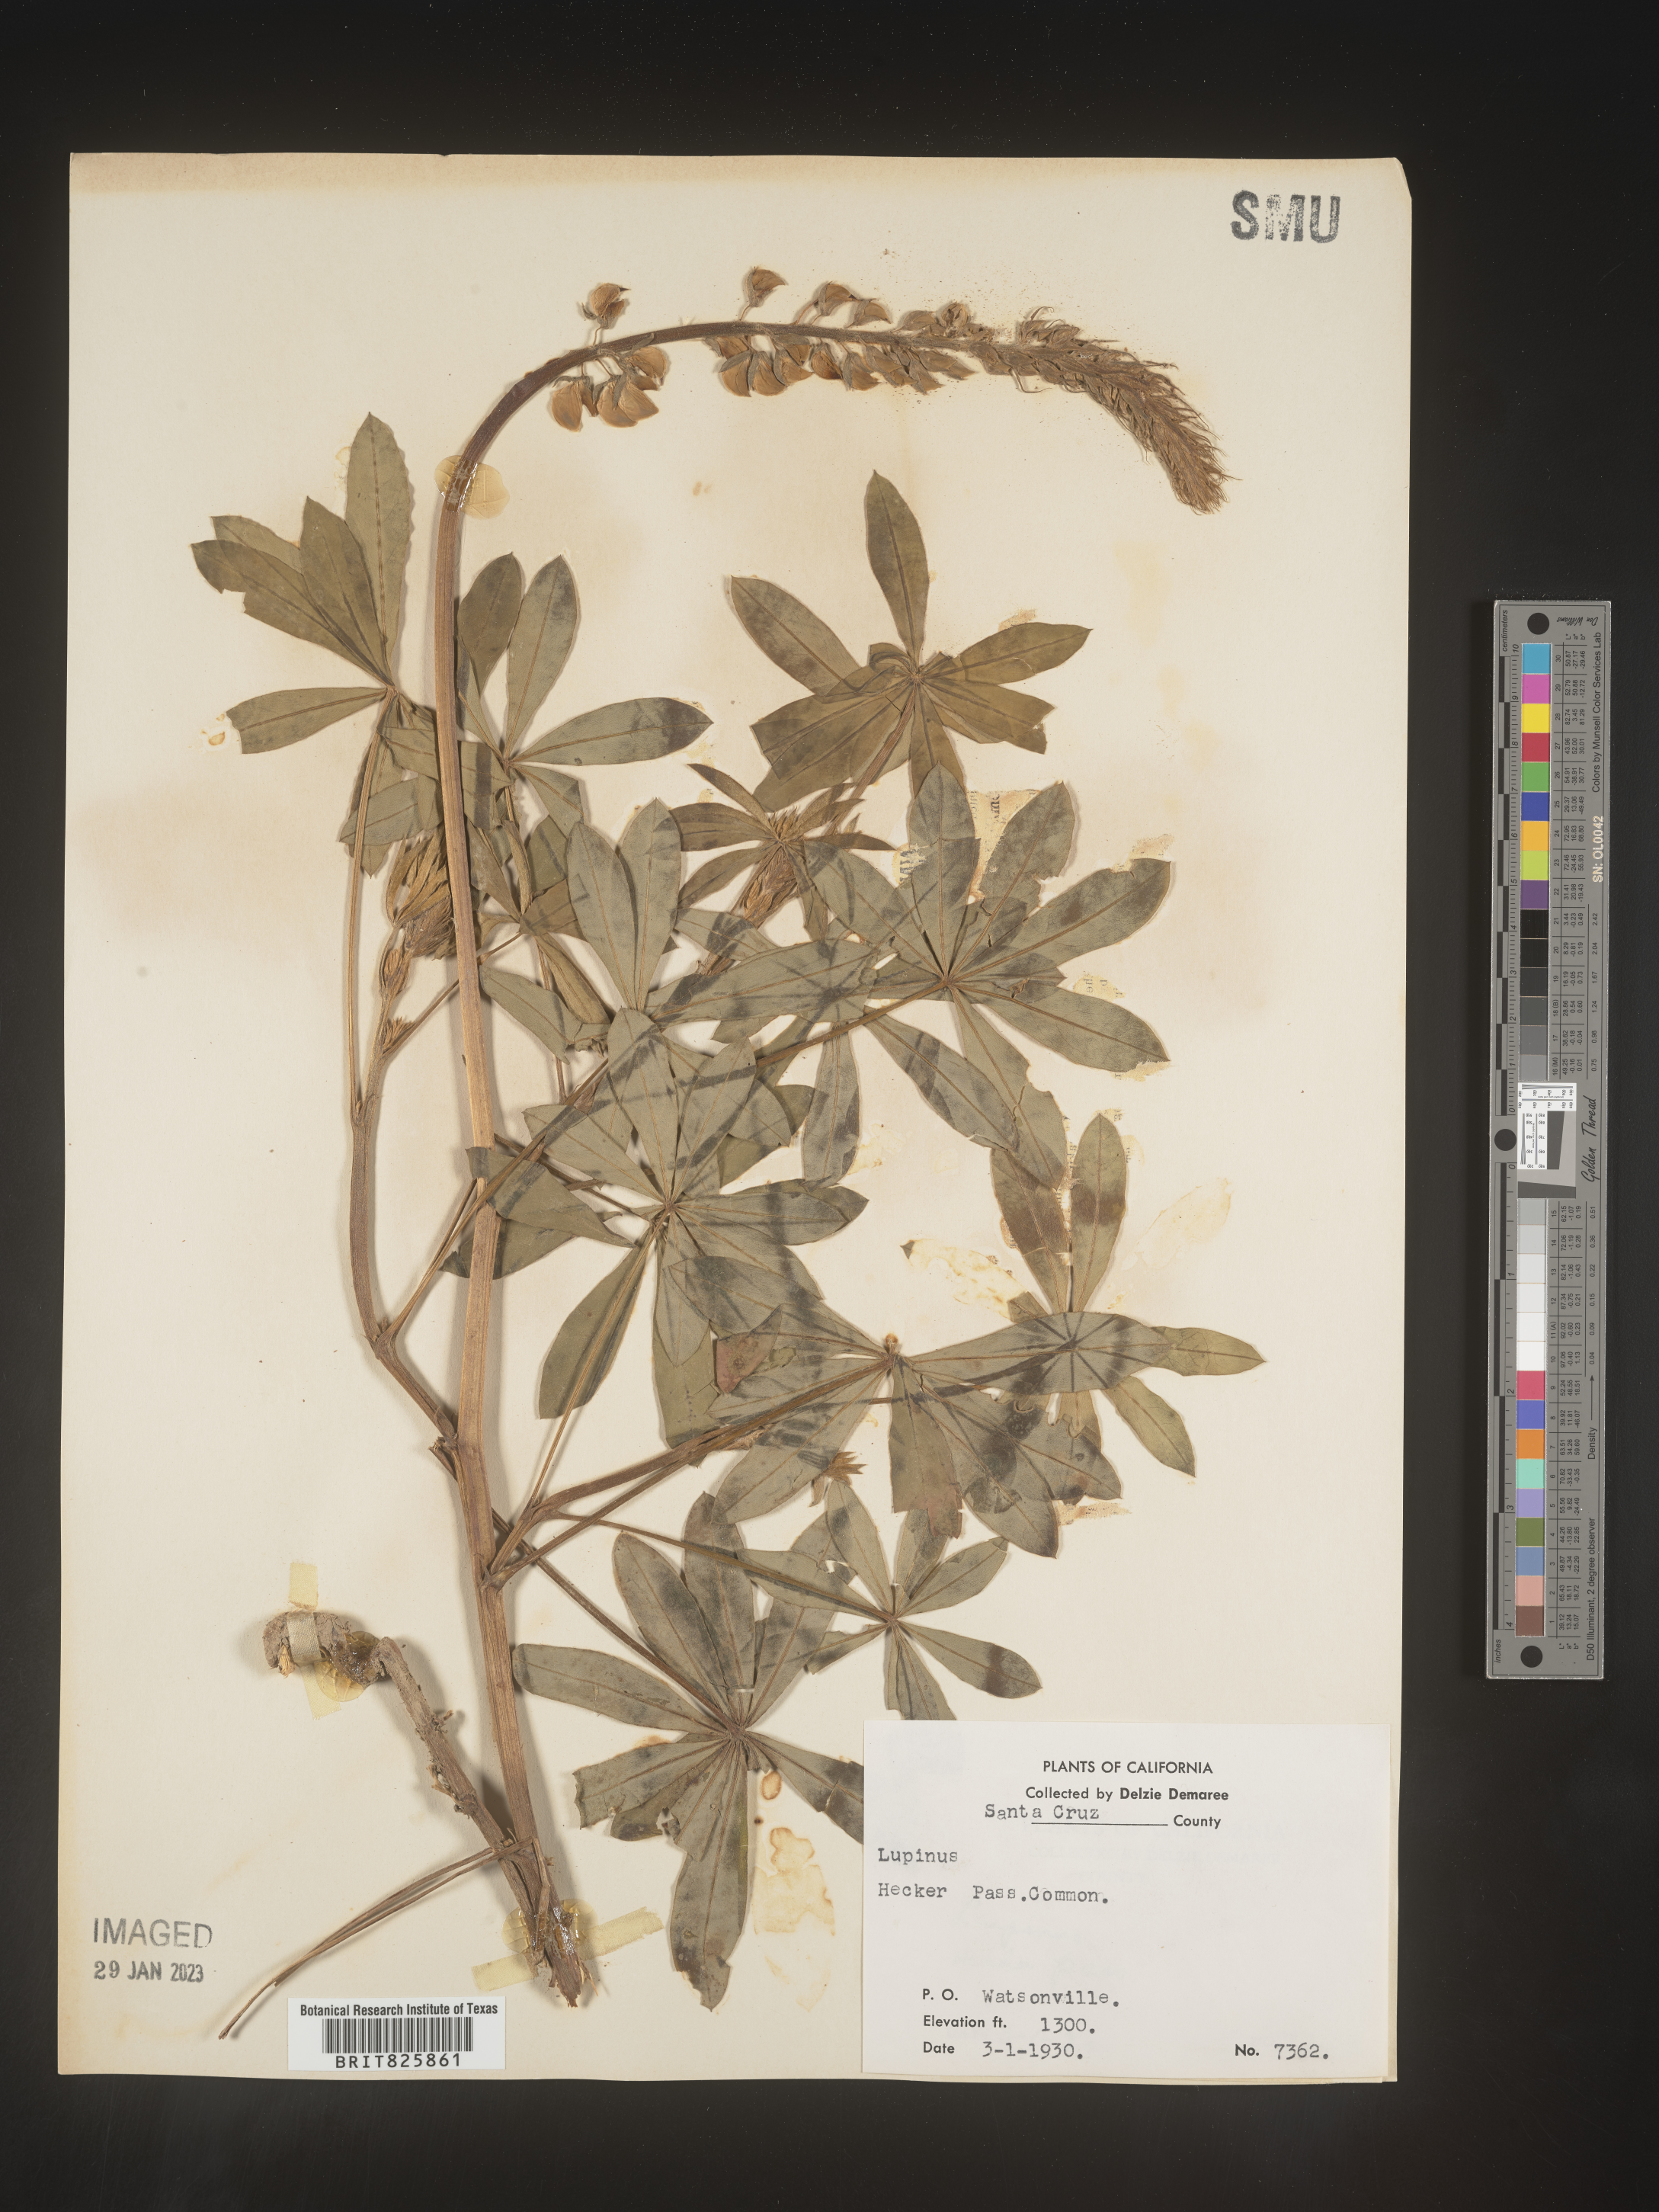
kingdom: Plantae
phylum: Tracheophyta
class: Magnoliopsida
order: Fabales
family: Fabaceae
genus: Lupinus
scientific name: Lupinus
